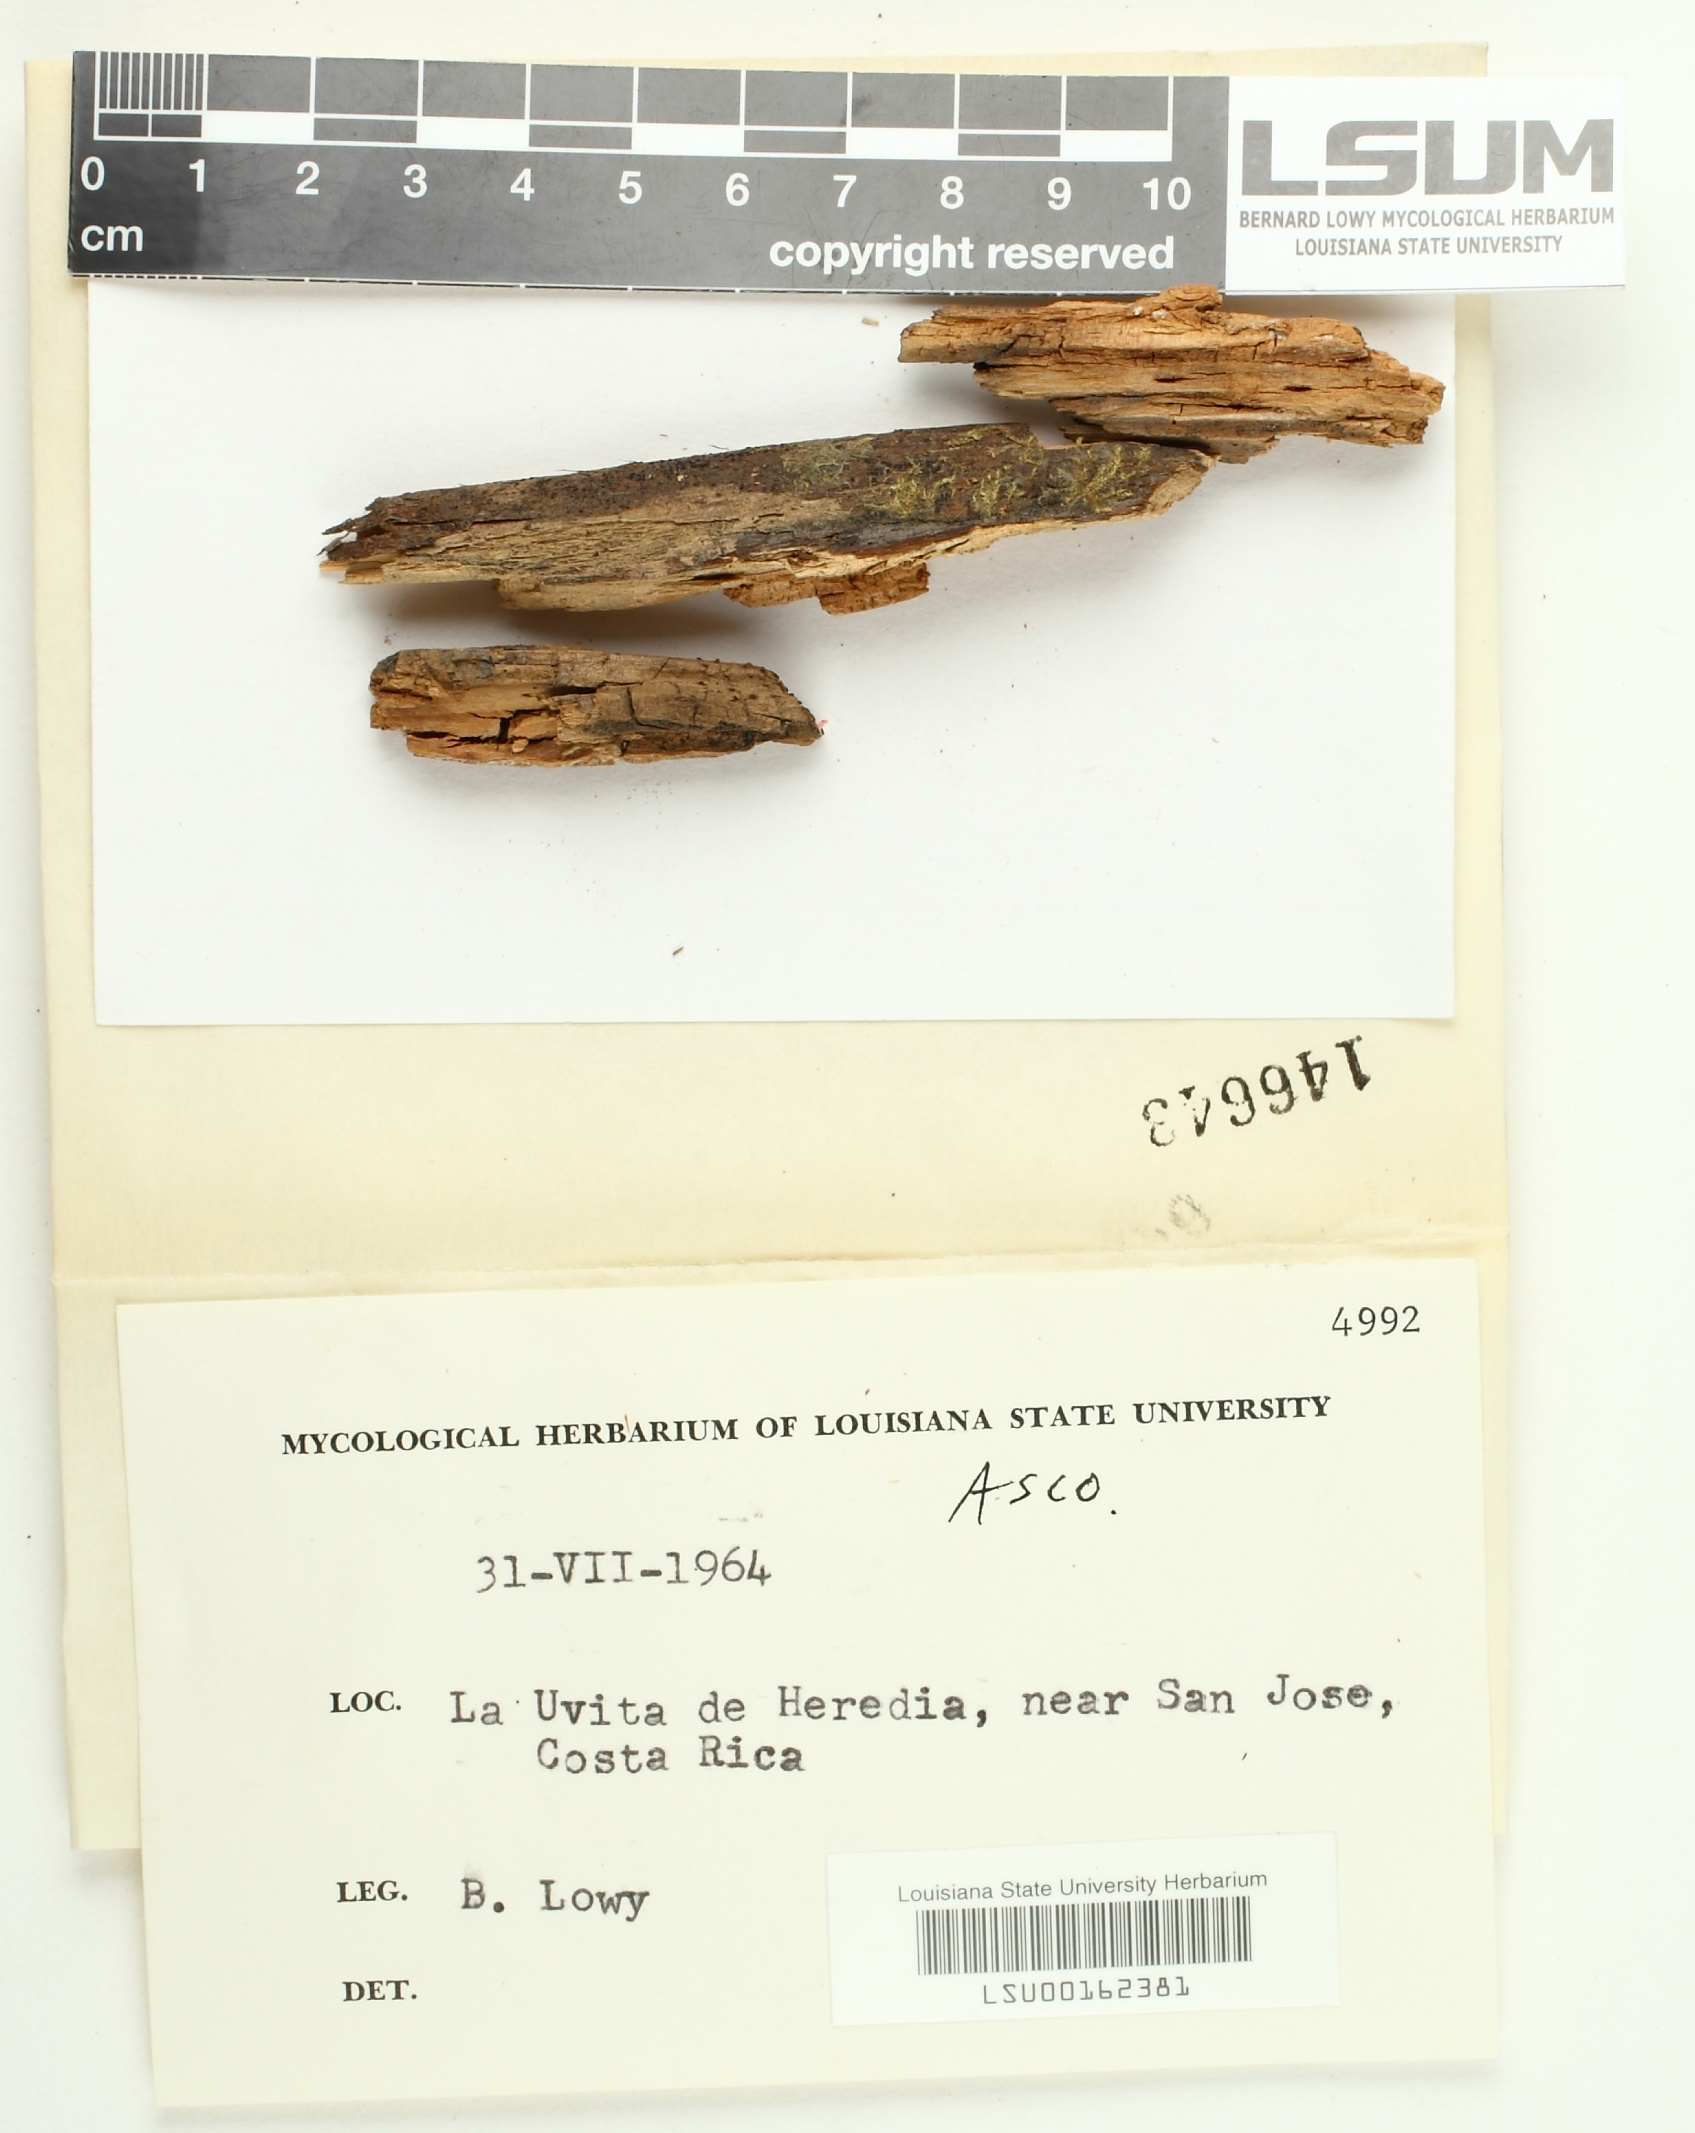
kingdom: Fungi
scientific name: Fungi
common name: Fungi
